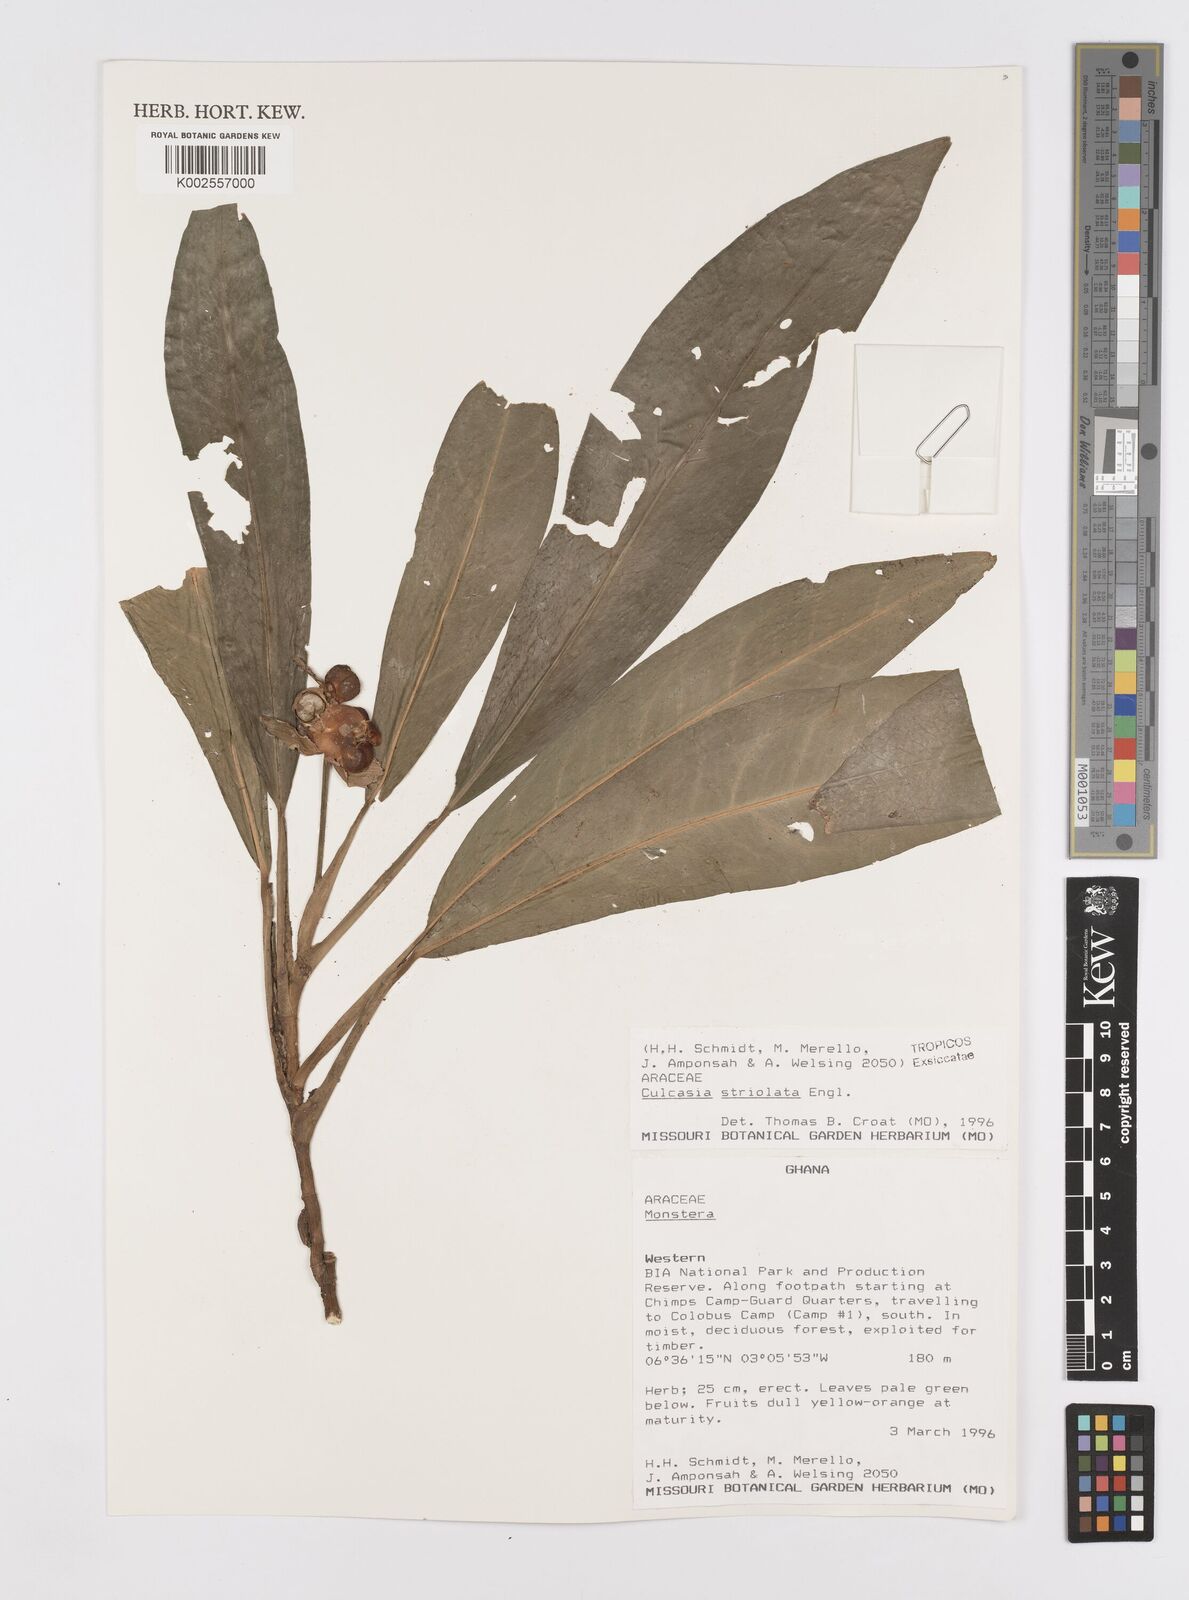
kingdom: Plantae
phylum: Tracheophyta
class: Liliopsida
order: Alismatales
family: Araceae
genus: Culcasia
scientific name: Culcasia striolata
